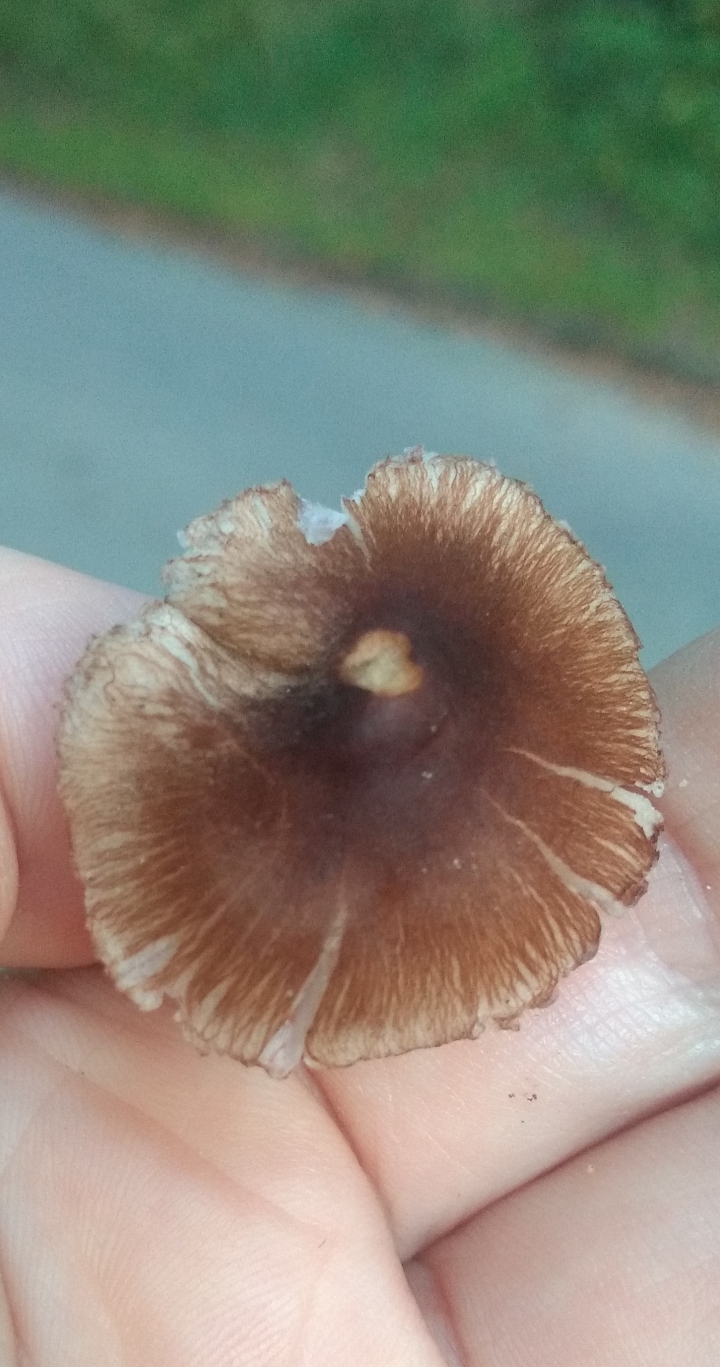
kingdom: Fungi
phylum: Basidiomycota
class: Agaricomycetes
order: Agaricales
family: Inocybaceae
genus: Inocybe
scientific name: Inocybe
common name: trævlhat
